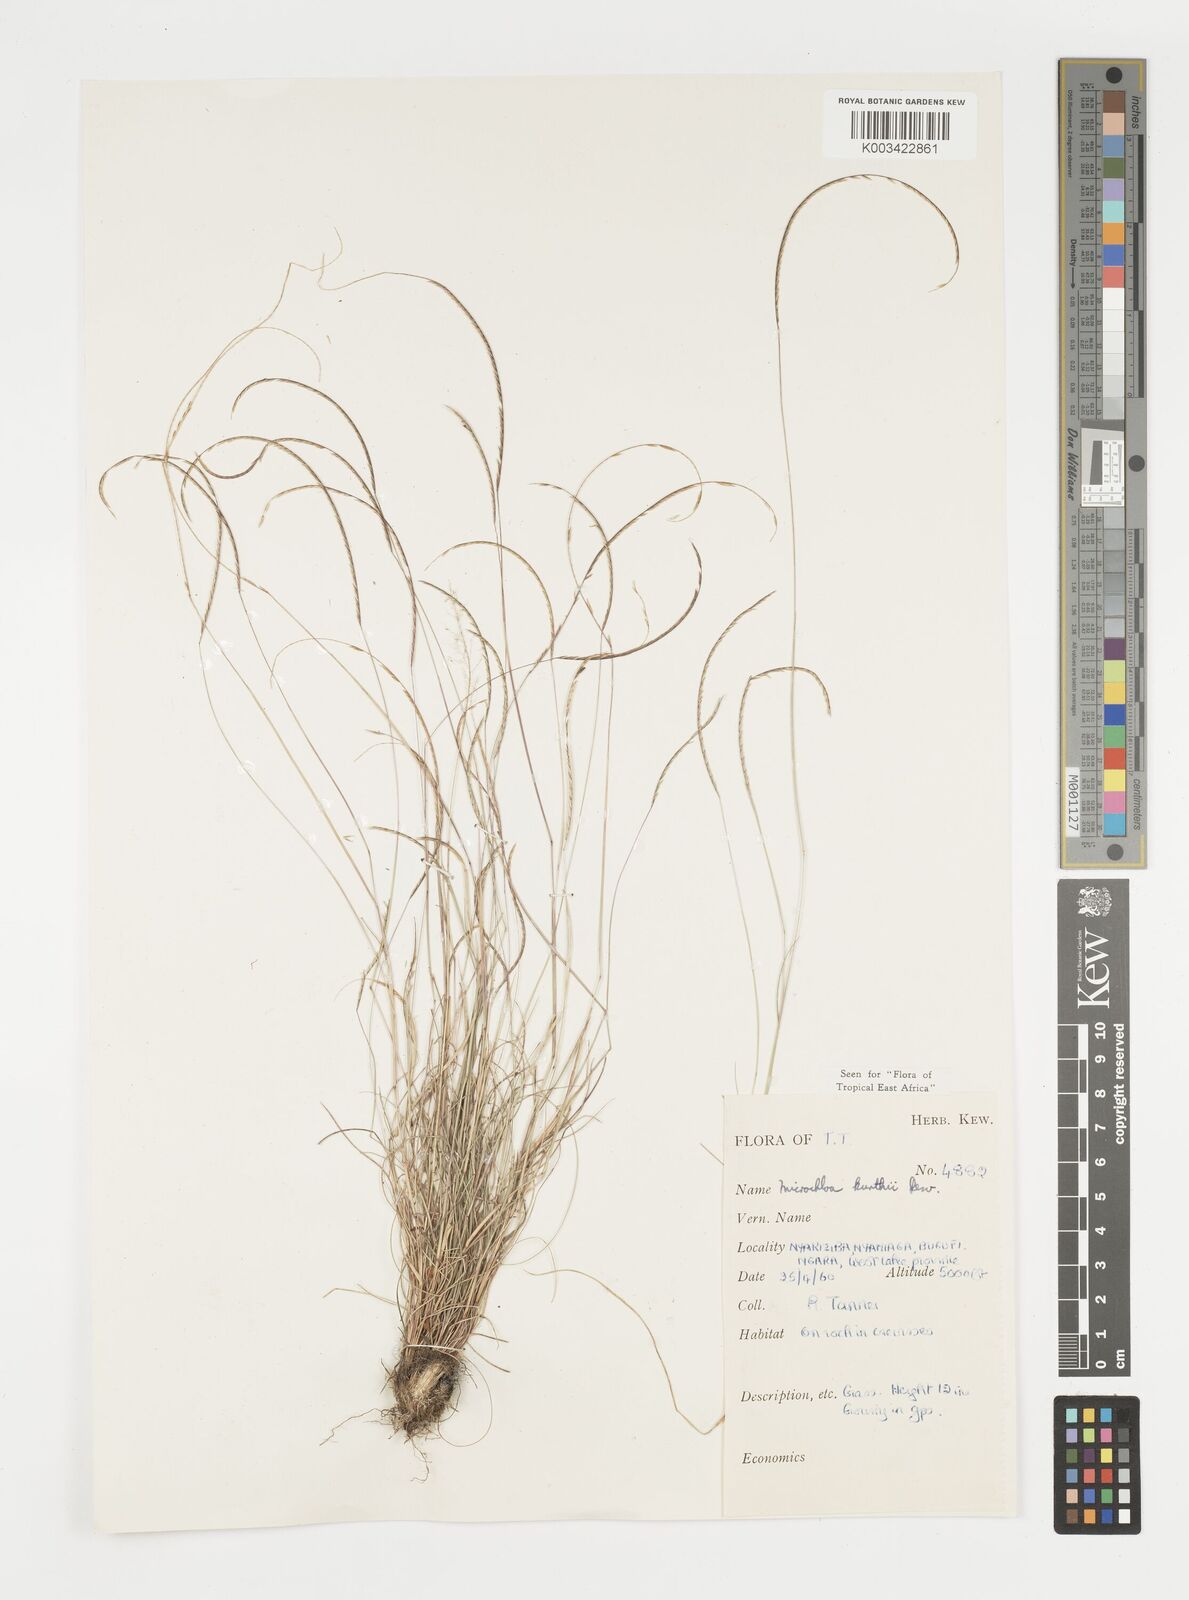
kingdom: Plantae
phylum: Tracheophyta
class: Liliopsida
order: Poales
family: Poaceae
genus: Microchloa
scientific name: Microchloa kunthii
